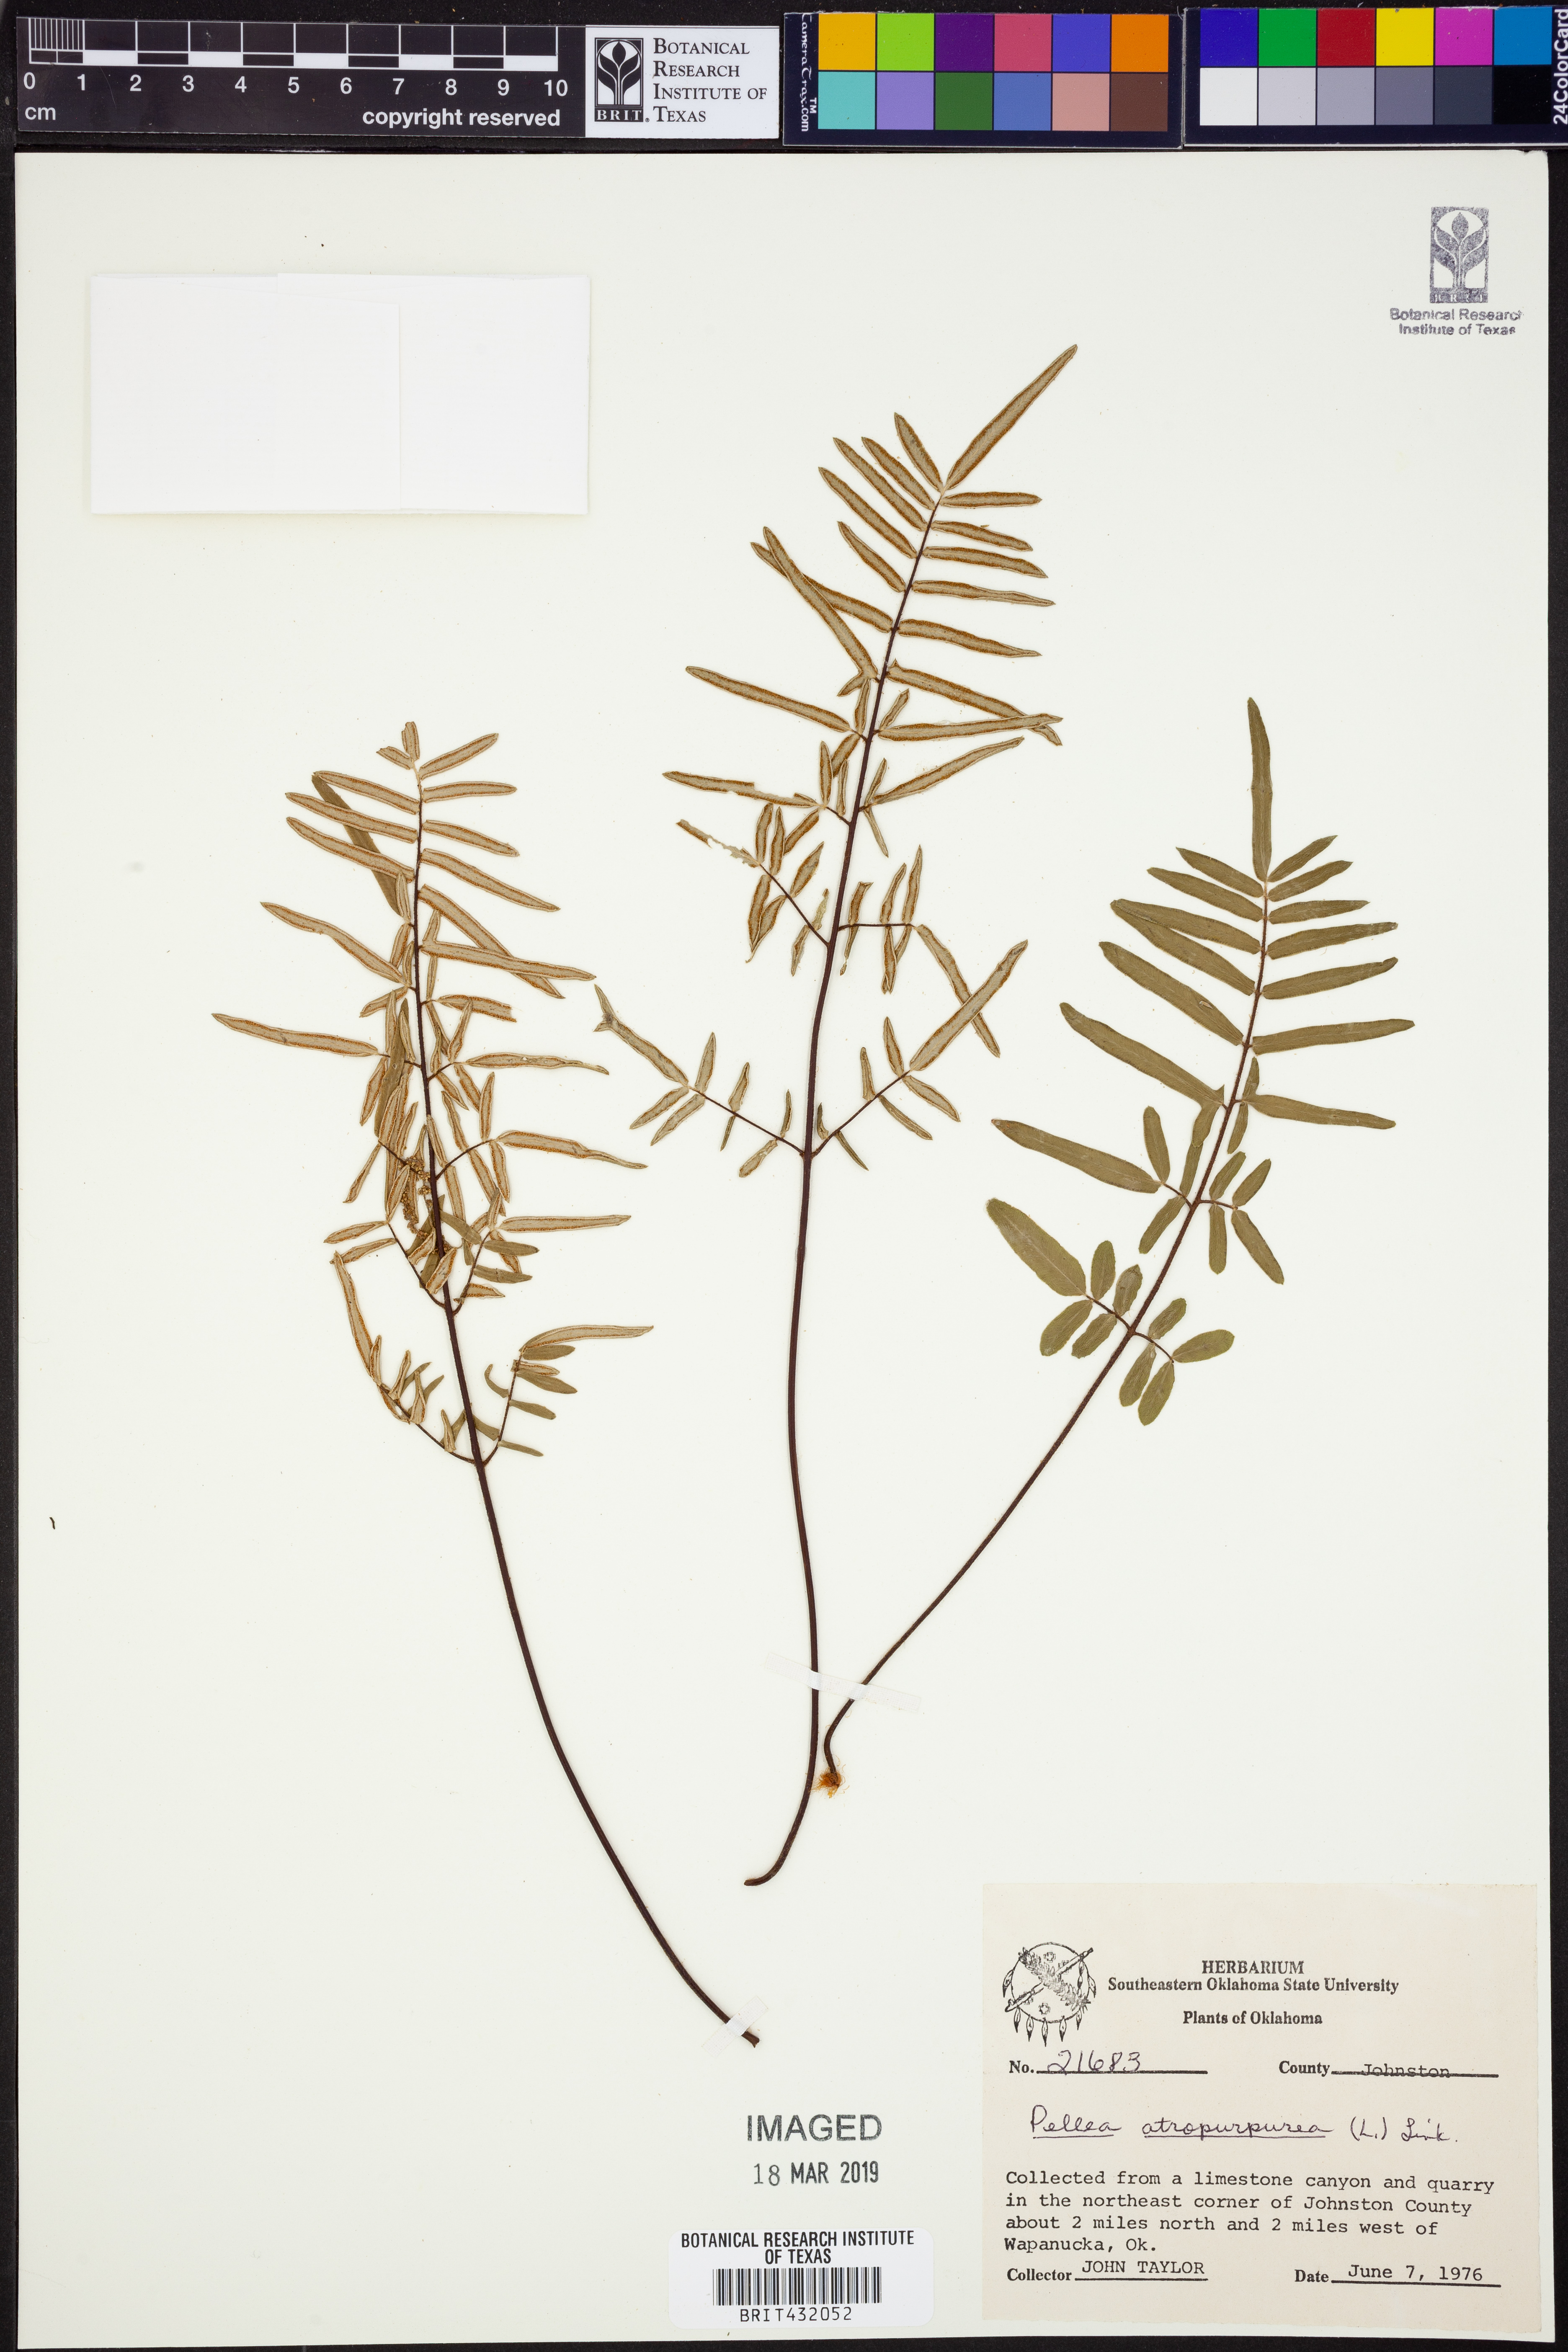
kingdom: Plantae
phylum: Tracheophyta
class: Polypodiopsida
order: Polypodiales
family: Pteridaceae
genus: Pellaea
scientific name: Pellaea atropurpurea
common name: Hairy cliffbrake
